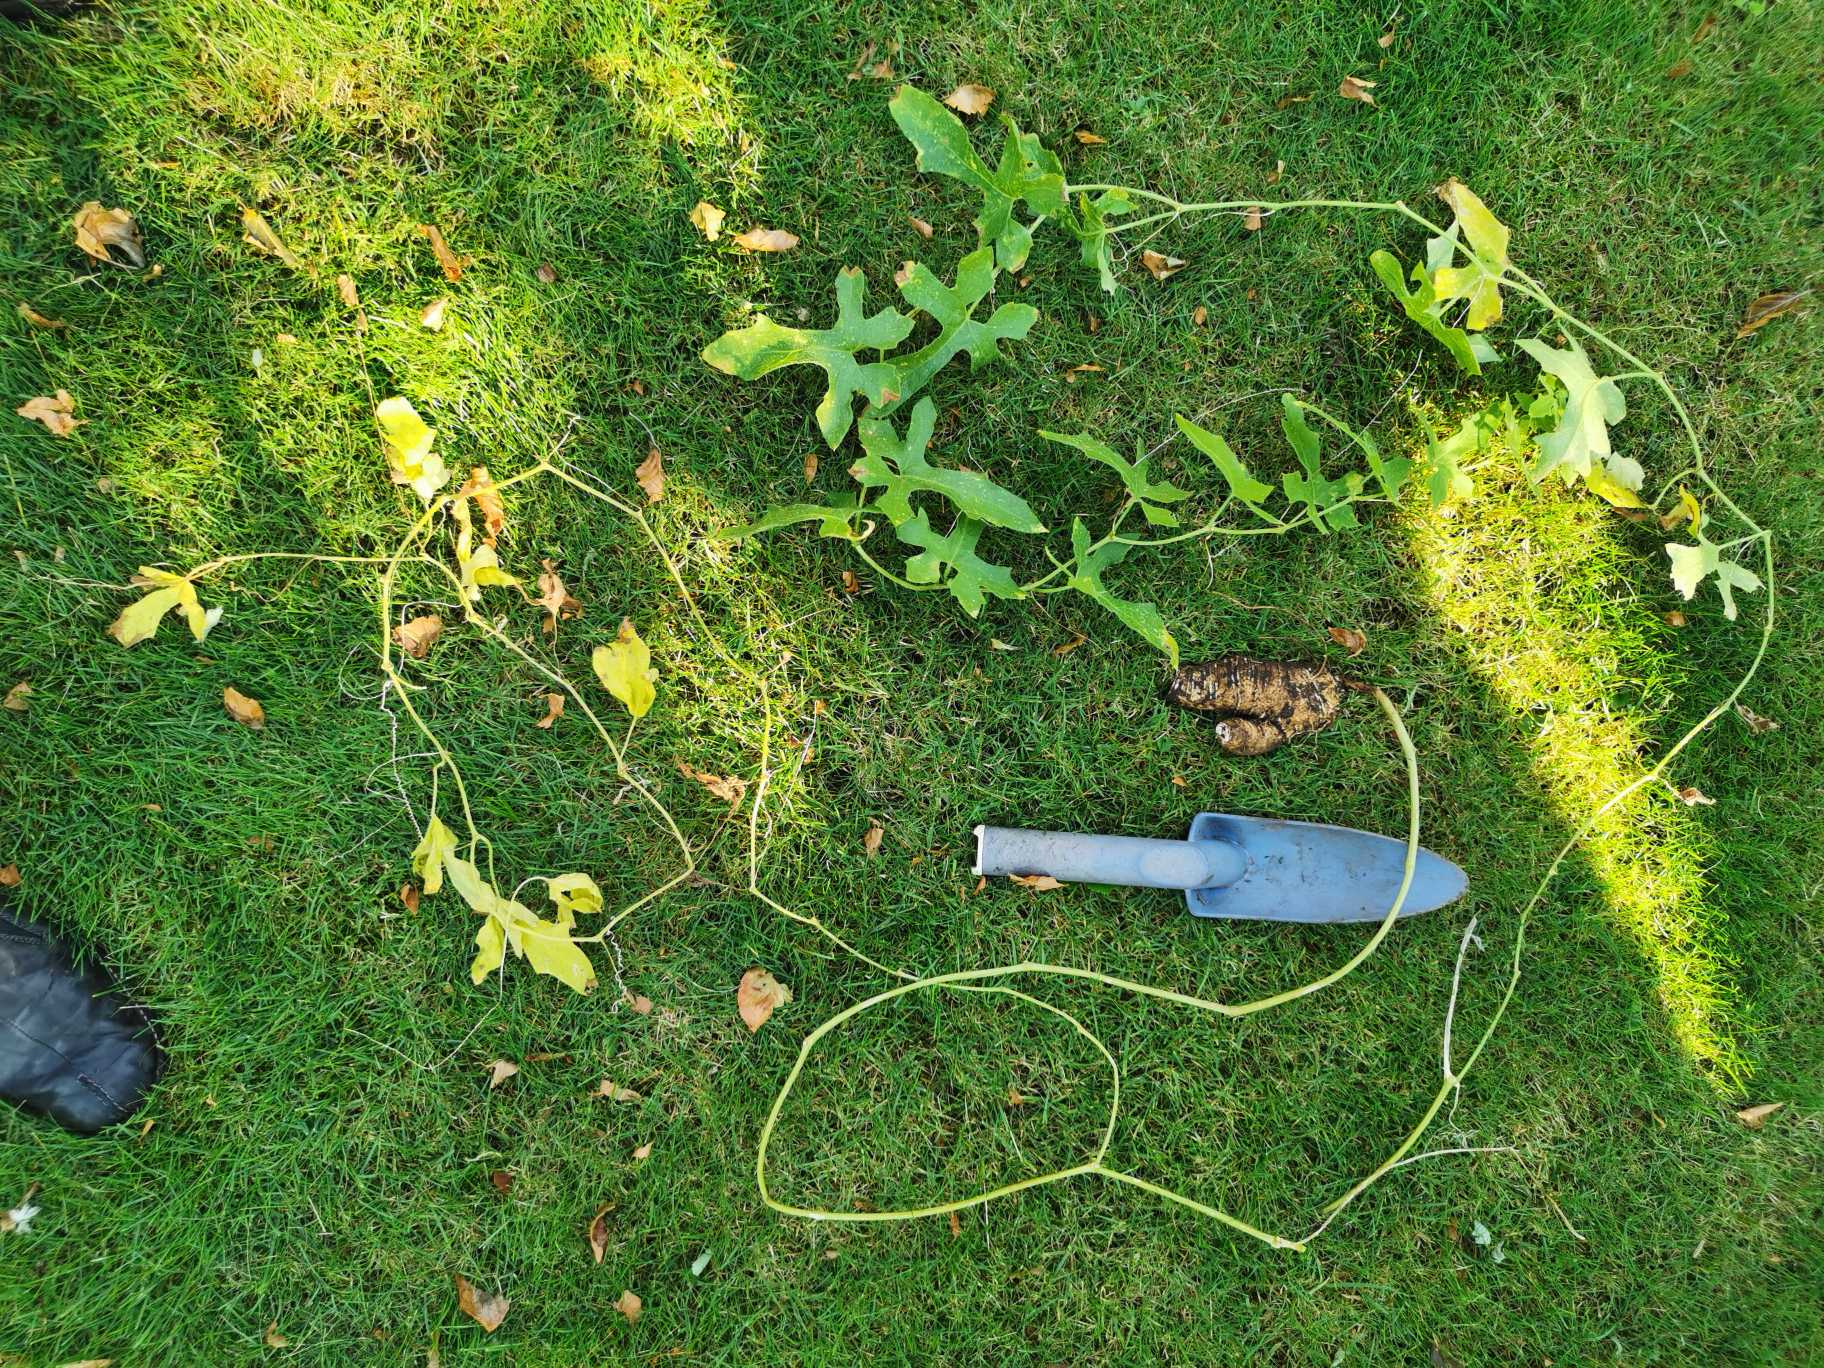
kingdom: Plantae
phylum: Tracheophyta
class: Magnoliopsida
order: Cucurbitales
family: Cucurbitaceae
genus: Bryonia
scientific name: Bryonia dioica
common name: Tvebo galdebær
